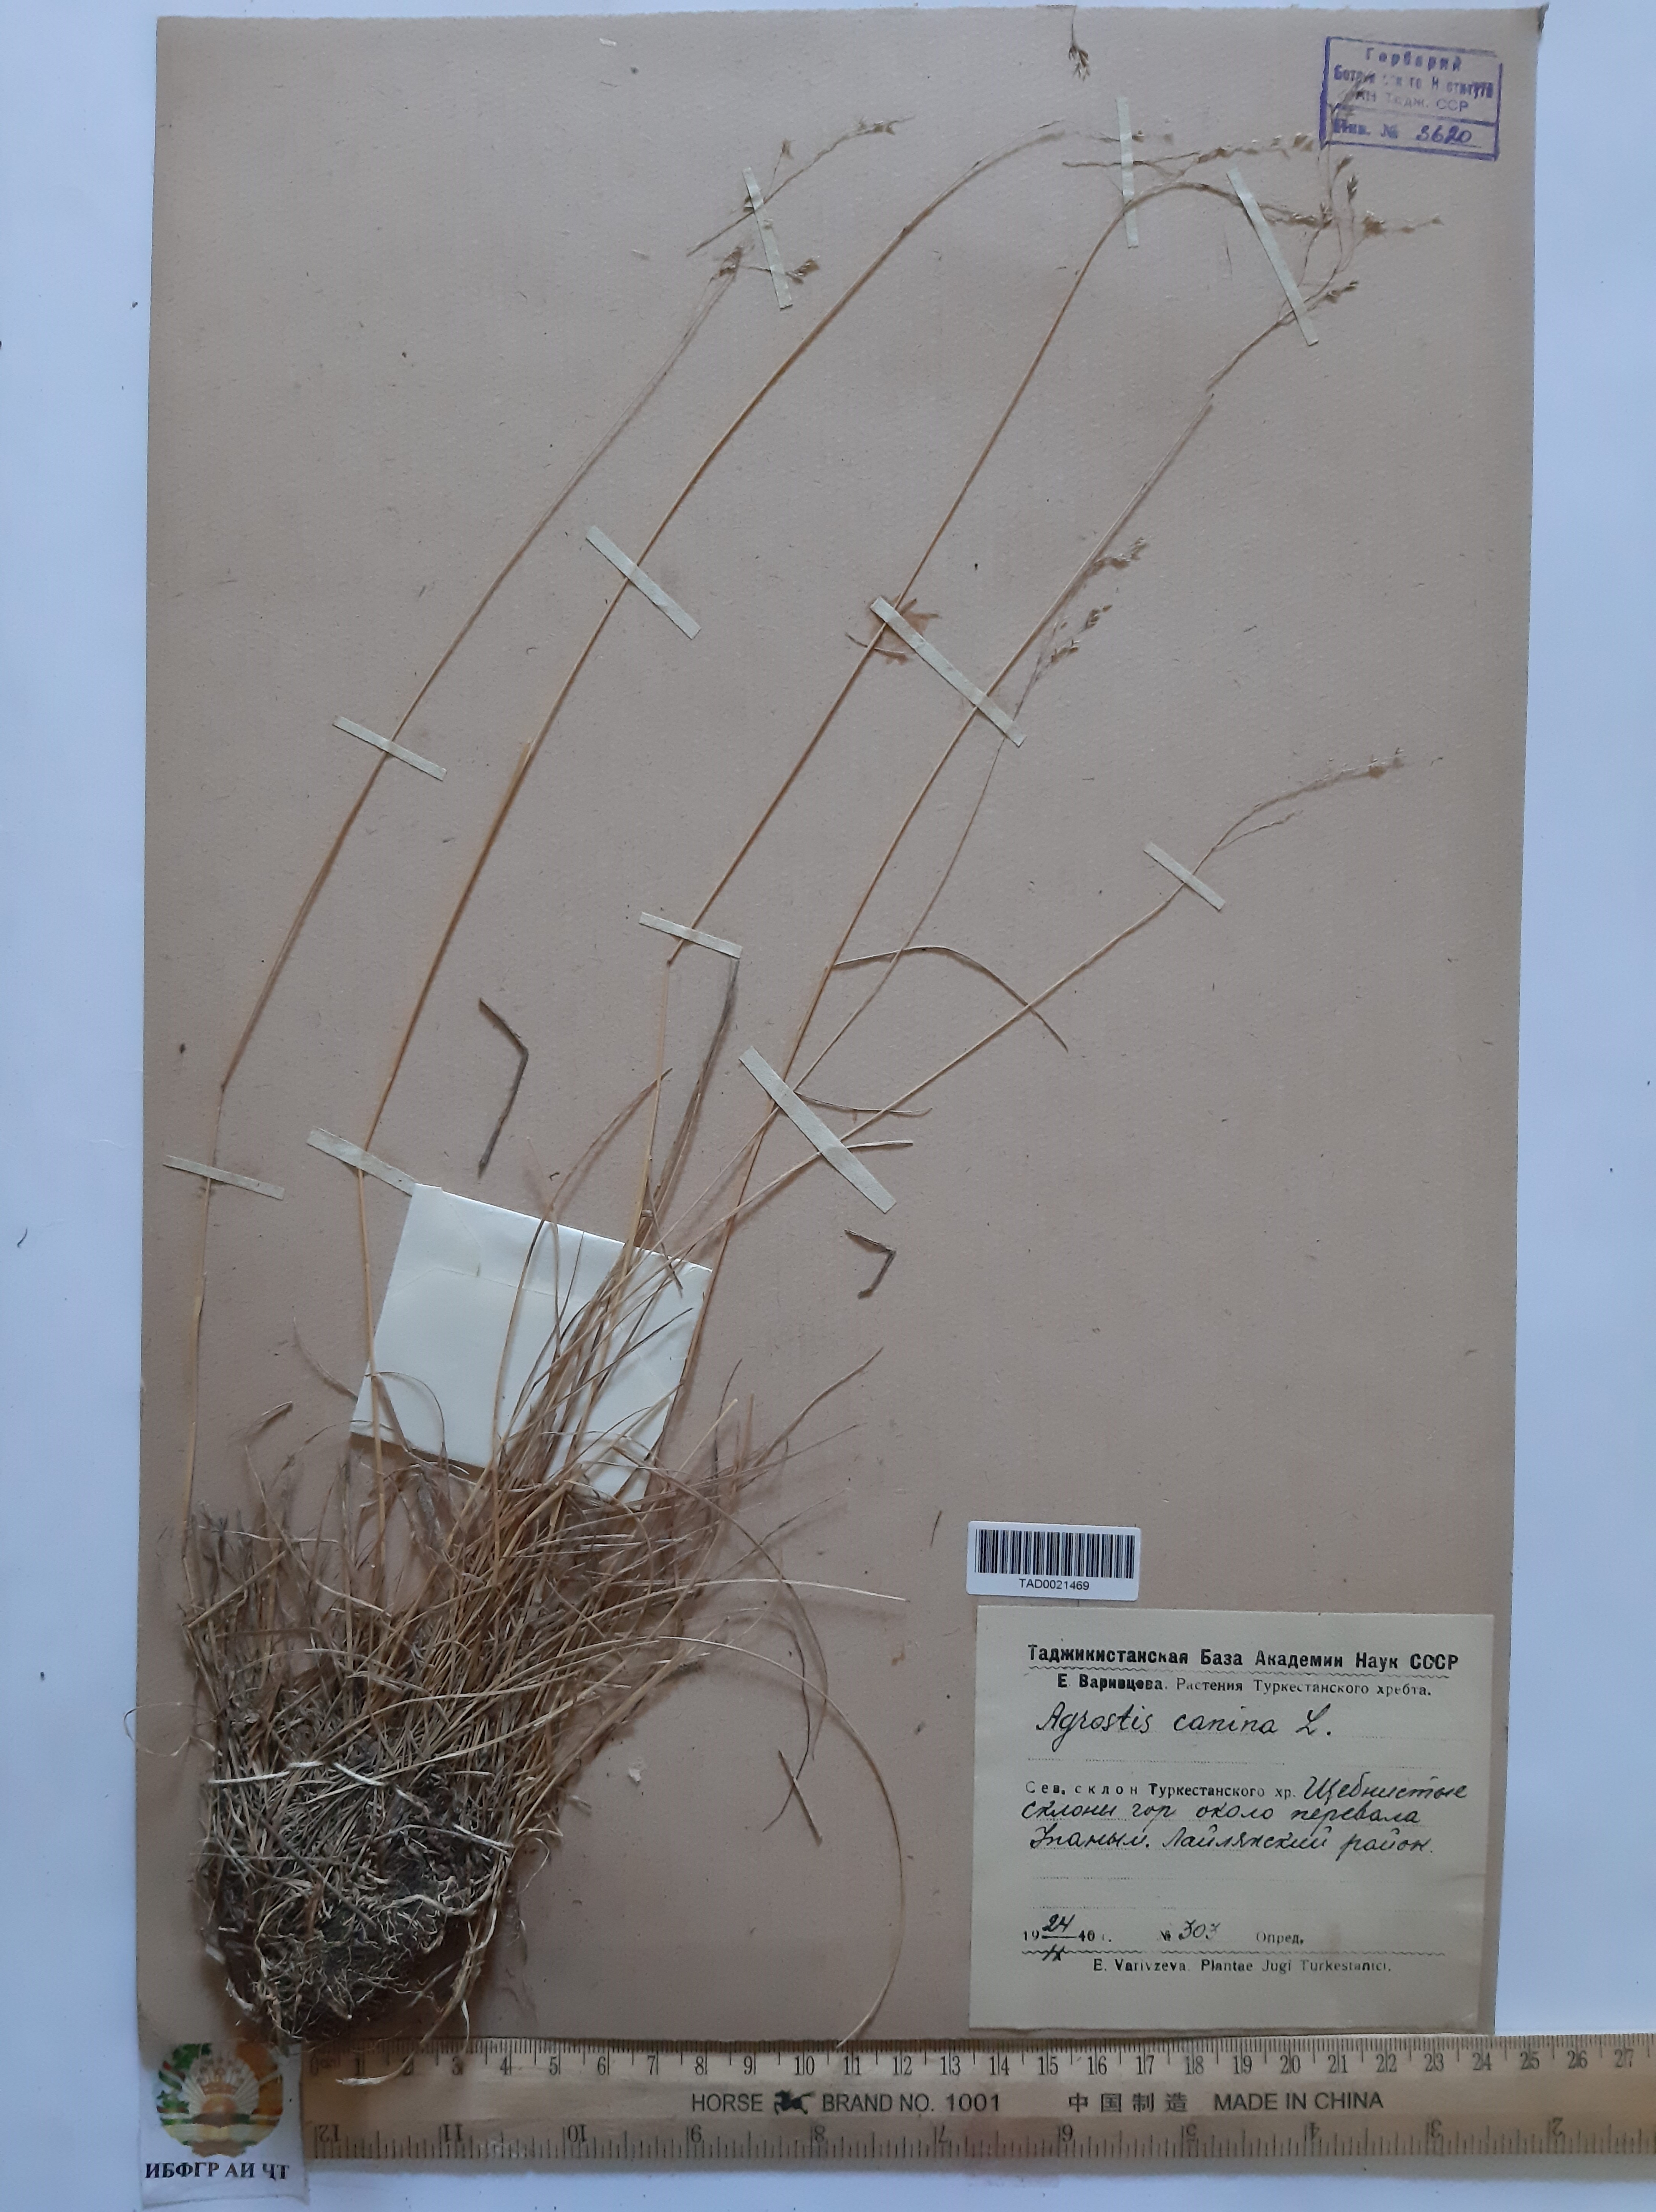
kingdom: Plantae
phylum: Tracheophyta
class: Liliopsida
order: Poales
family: Poaceae
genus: Agrostis
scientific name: Agrostis canina
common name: Velvet bent
